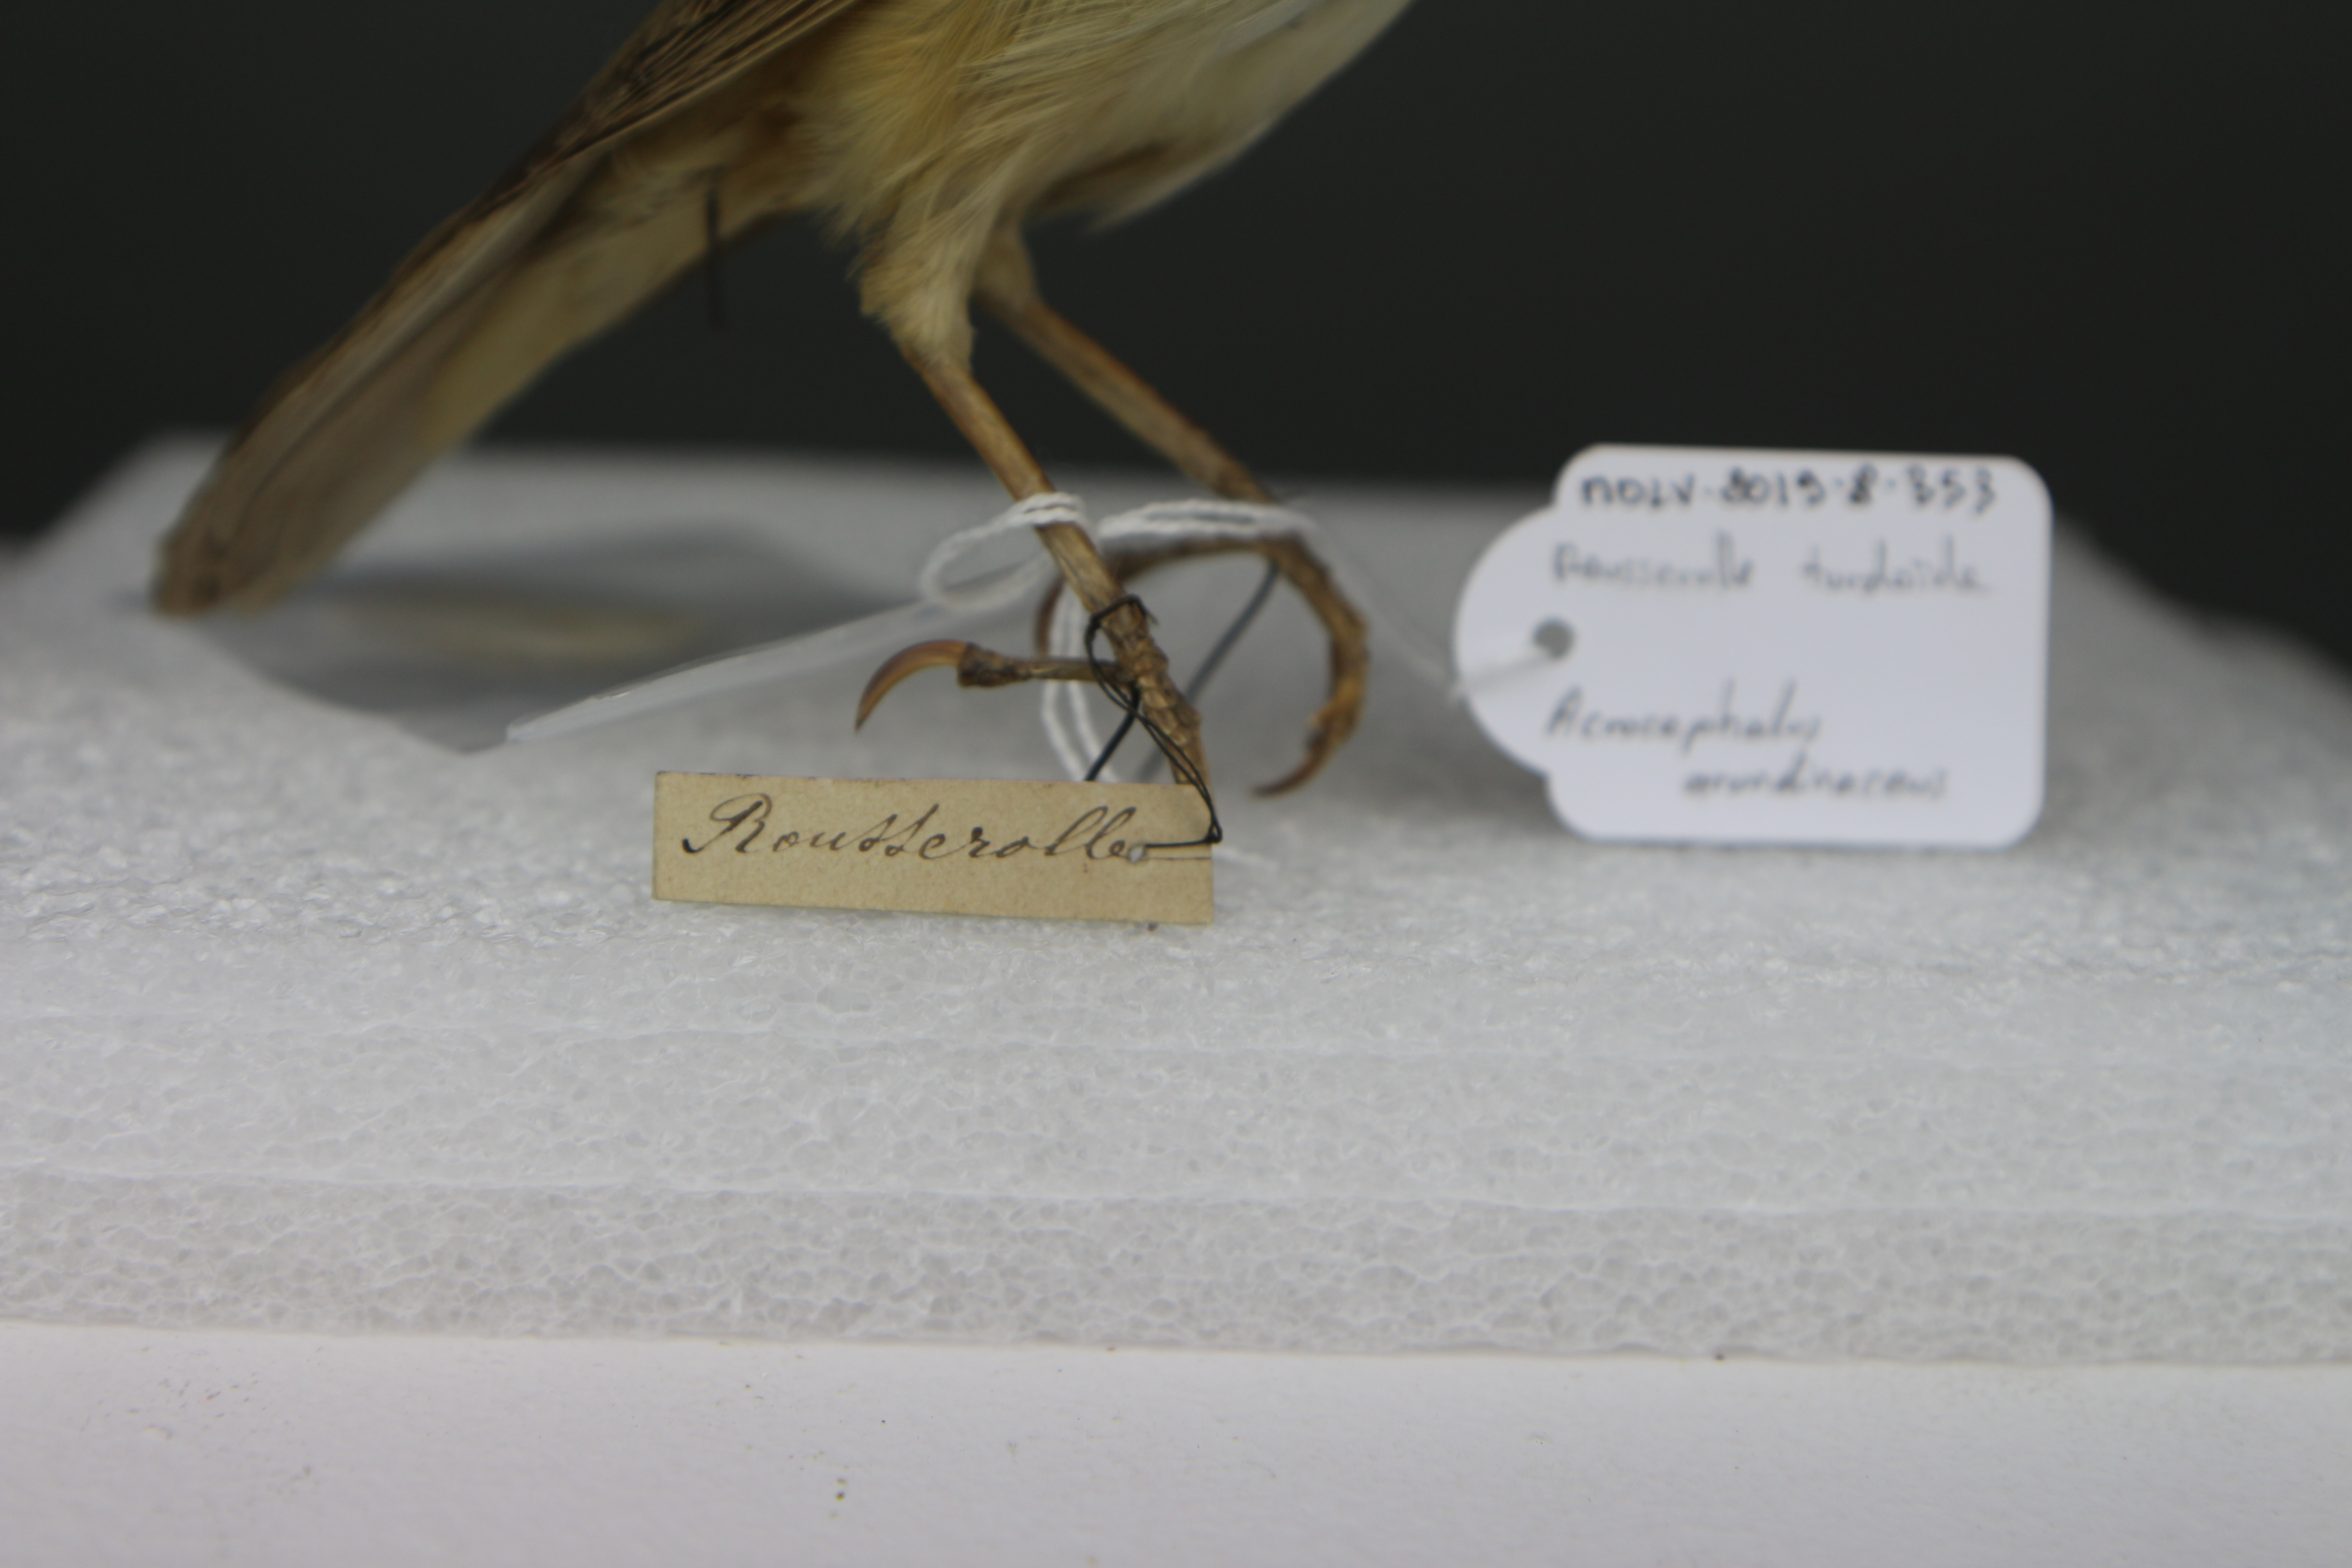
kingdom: Animalia
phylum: Chordata
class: Aves
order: Passeriformes
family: Acrocephalidae
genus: Acrocephalus
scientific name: Acrocephalus arundinaceus
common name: Great reed warbler
